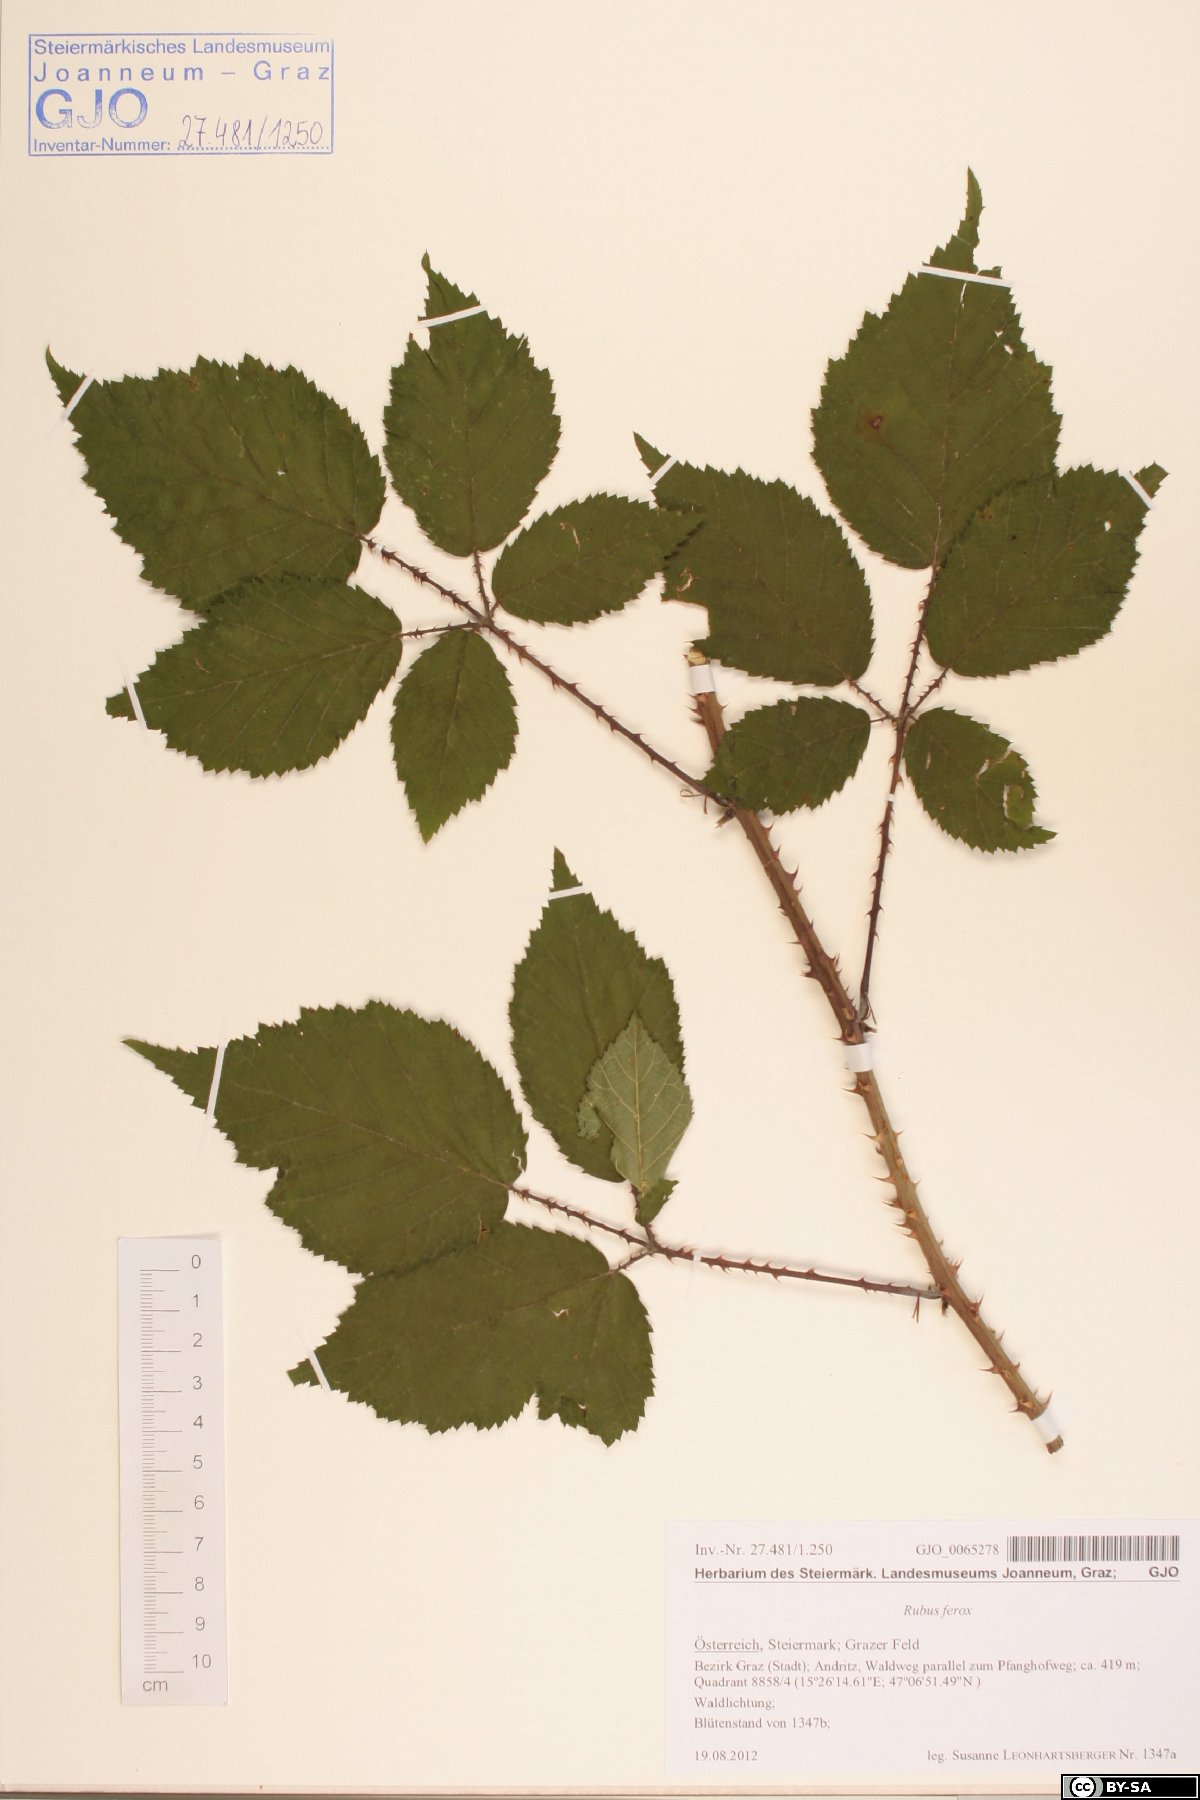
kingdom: Plantae
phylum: Tracheophyta
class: Magnoliopsida
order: Rosales
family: Rosaceae
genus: Rubus
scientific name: Rubus ferox
